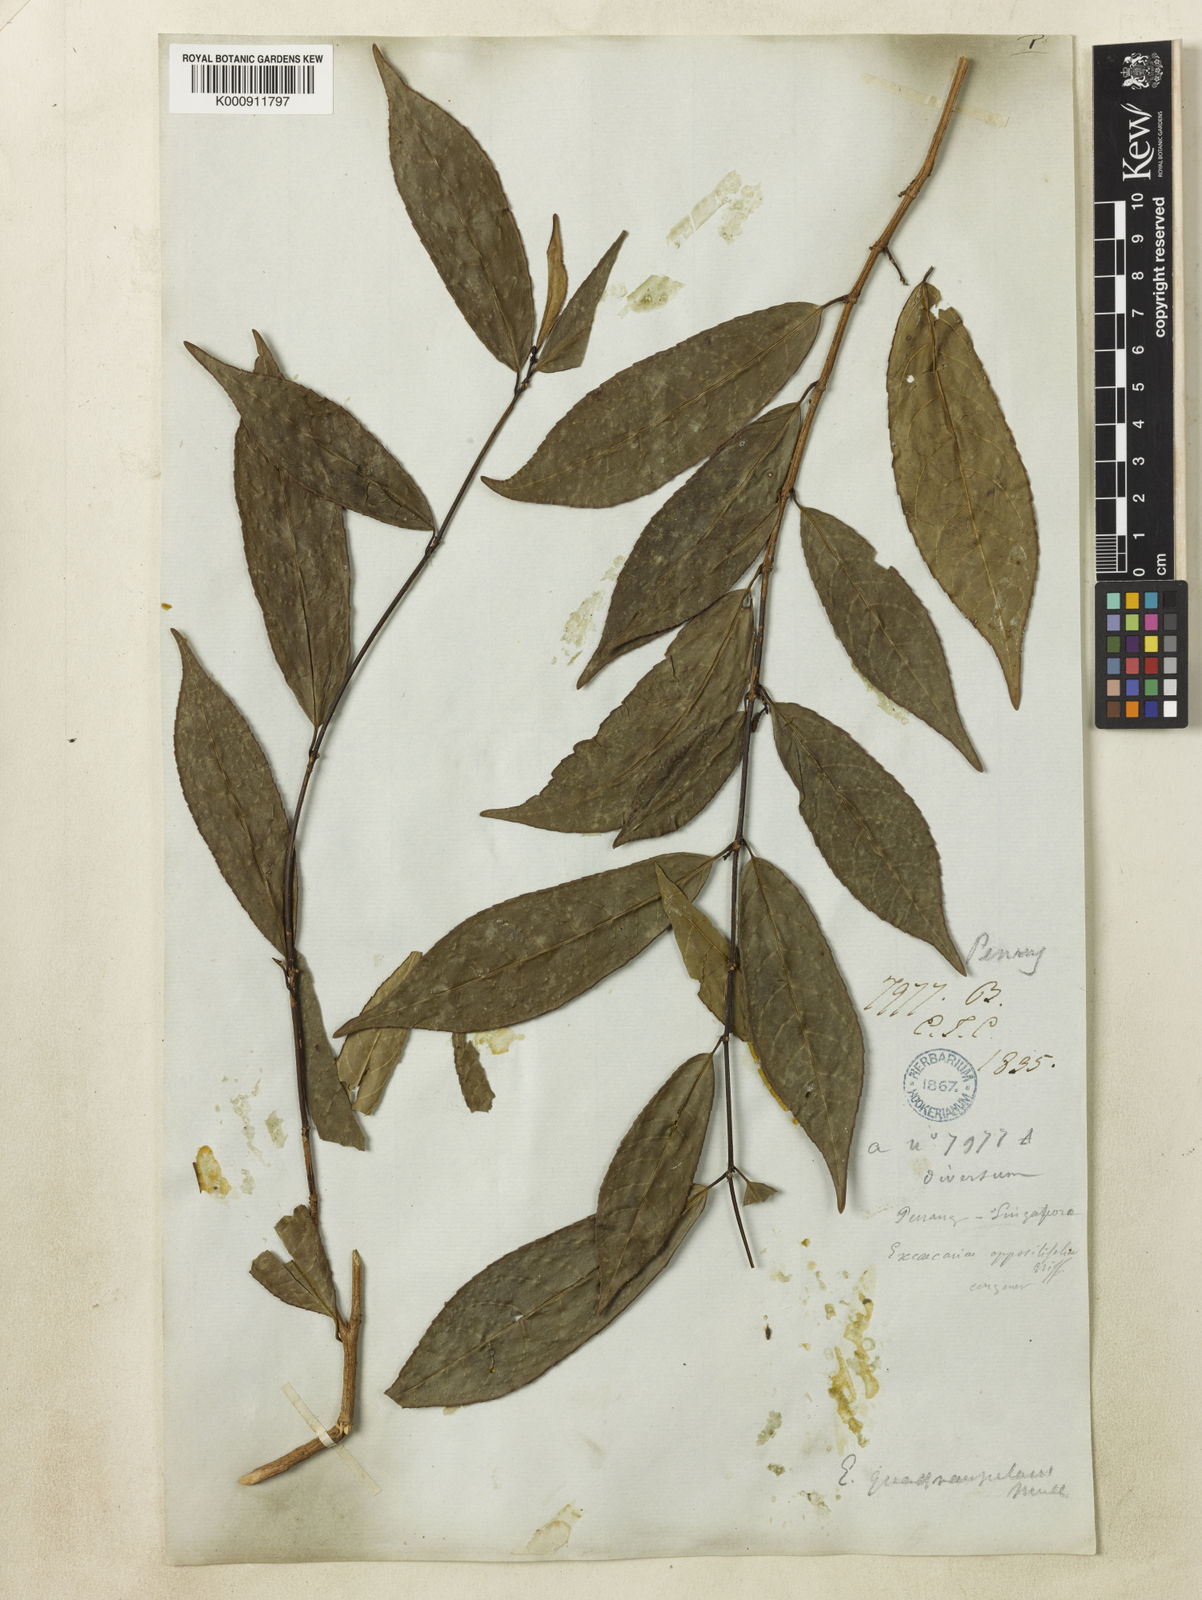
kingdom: Plantae
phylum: Tracheophyta
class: Magnoliopsida
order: Malpighiales
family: Euphorbiaceae
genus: Excoecaria
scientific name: Excoecaria cochinchinensis
